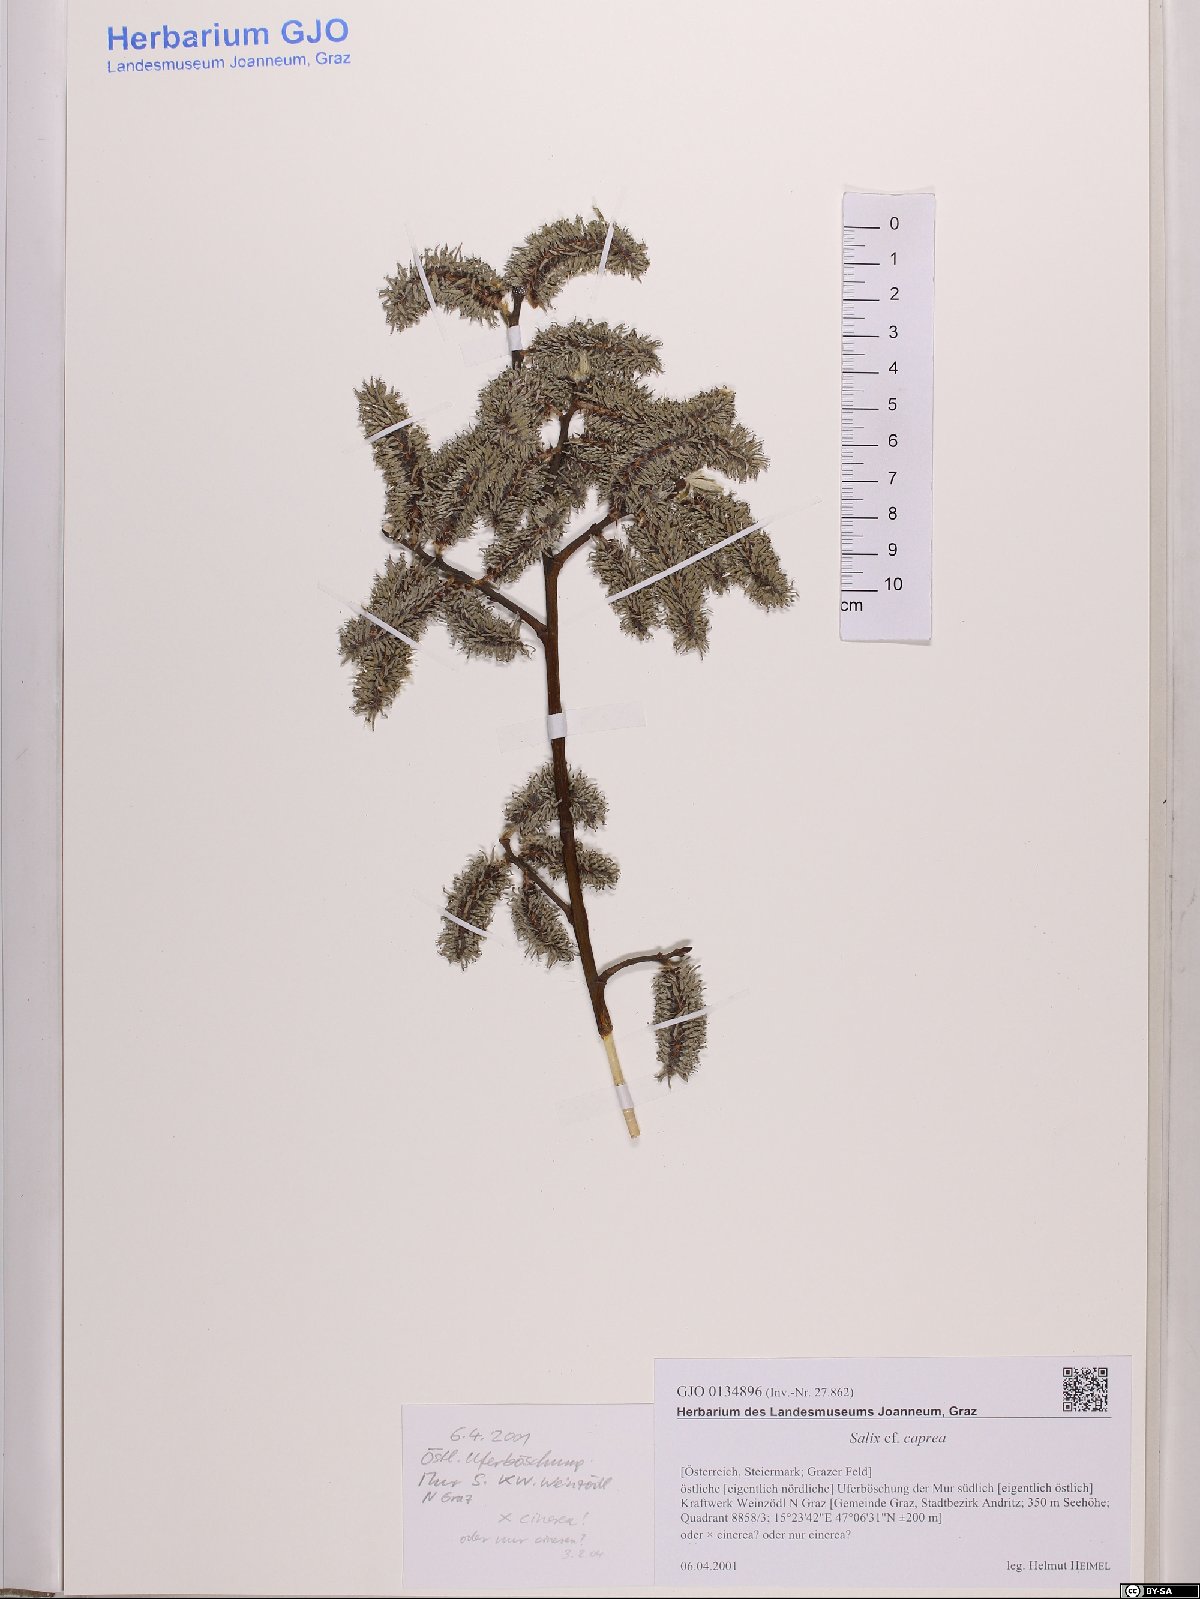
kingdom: Plantae
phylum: Tracheophyta
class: Magnoliopsida
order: Malpighiales
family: Salicaceae
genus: Salix
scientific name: Salix caprea
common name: Goat willow
